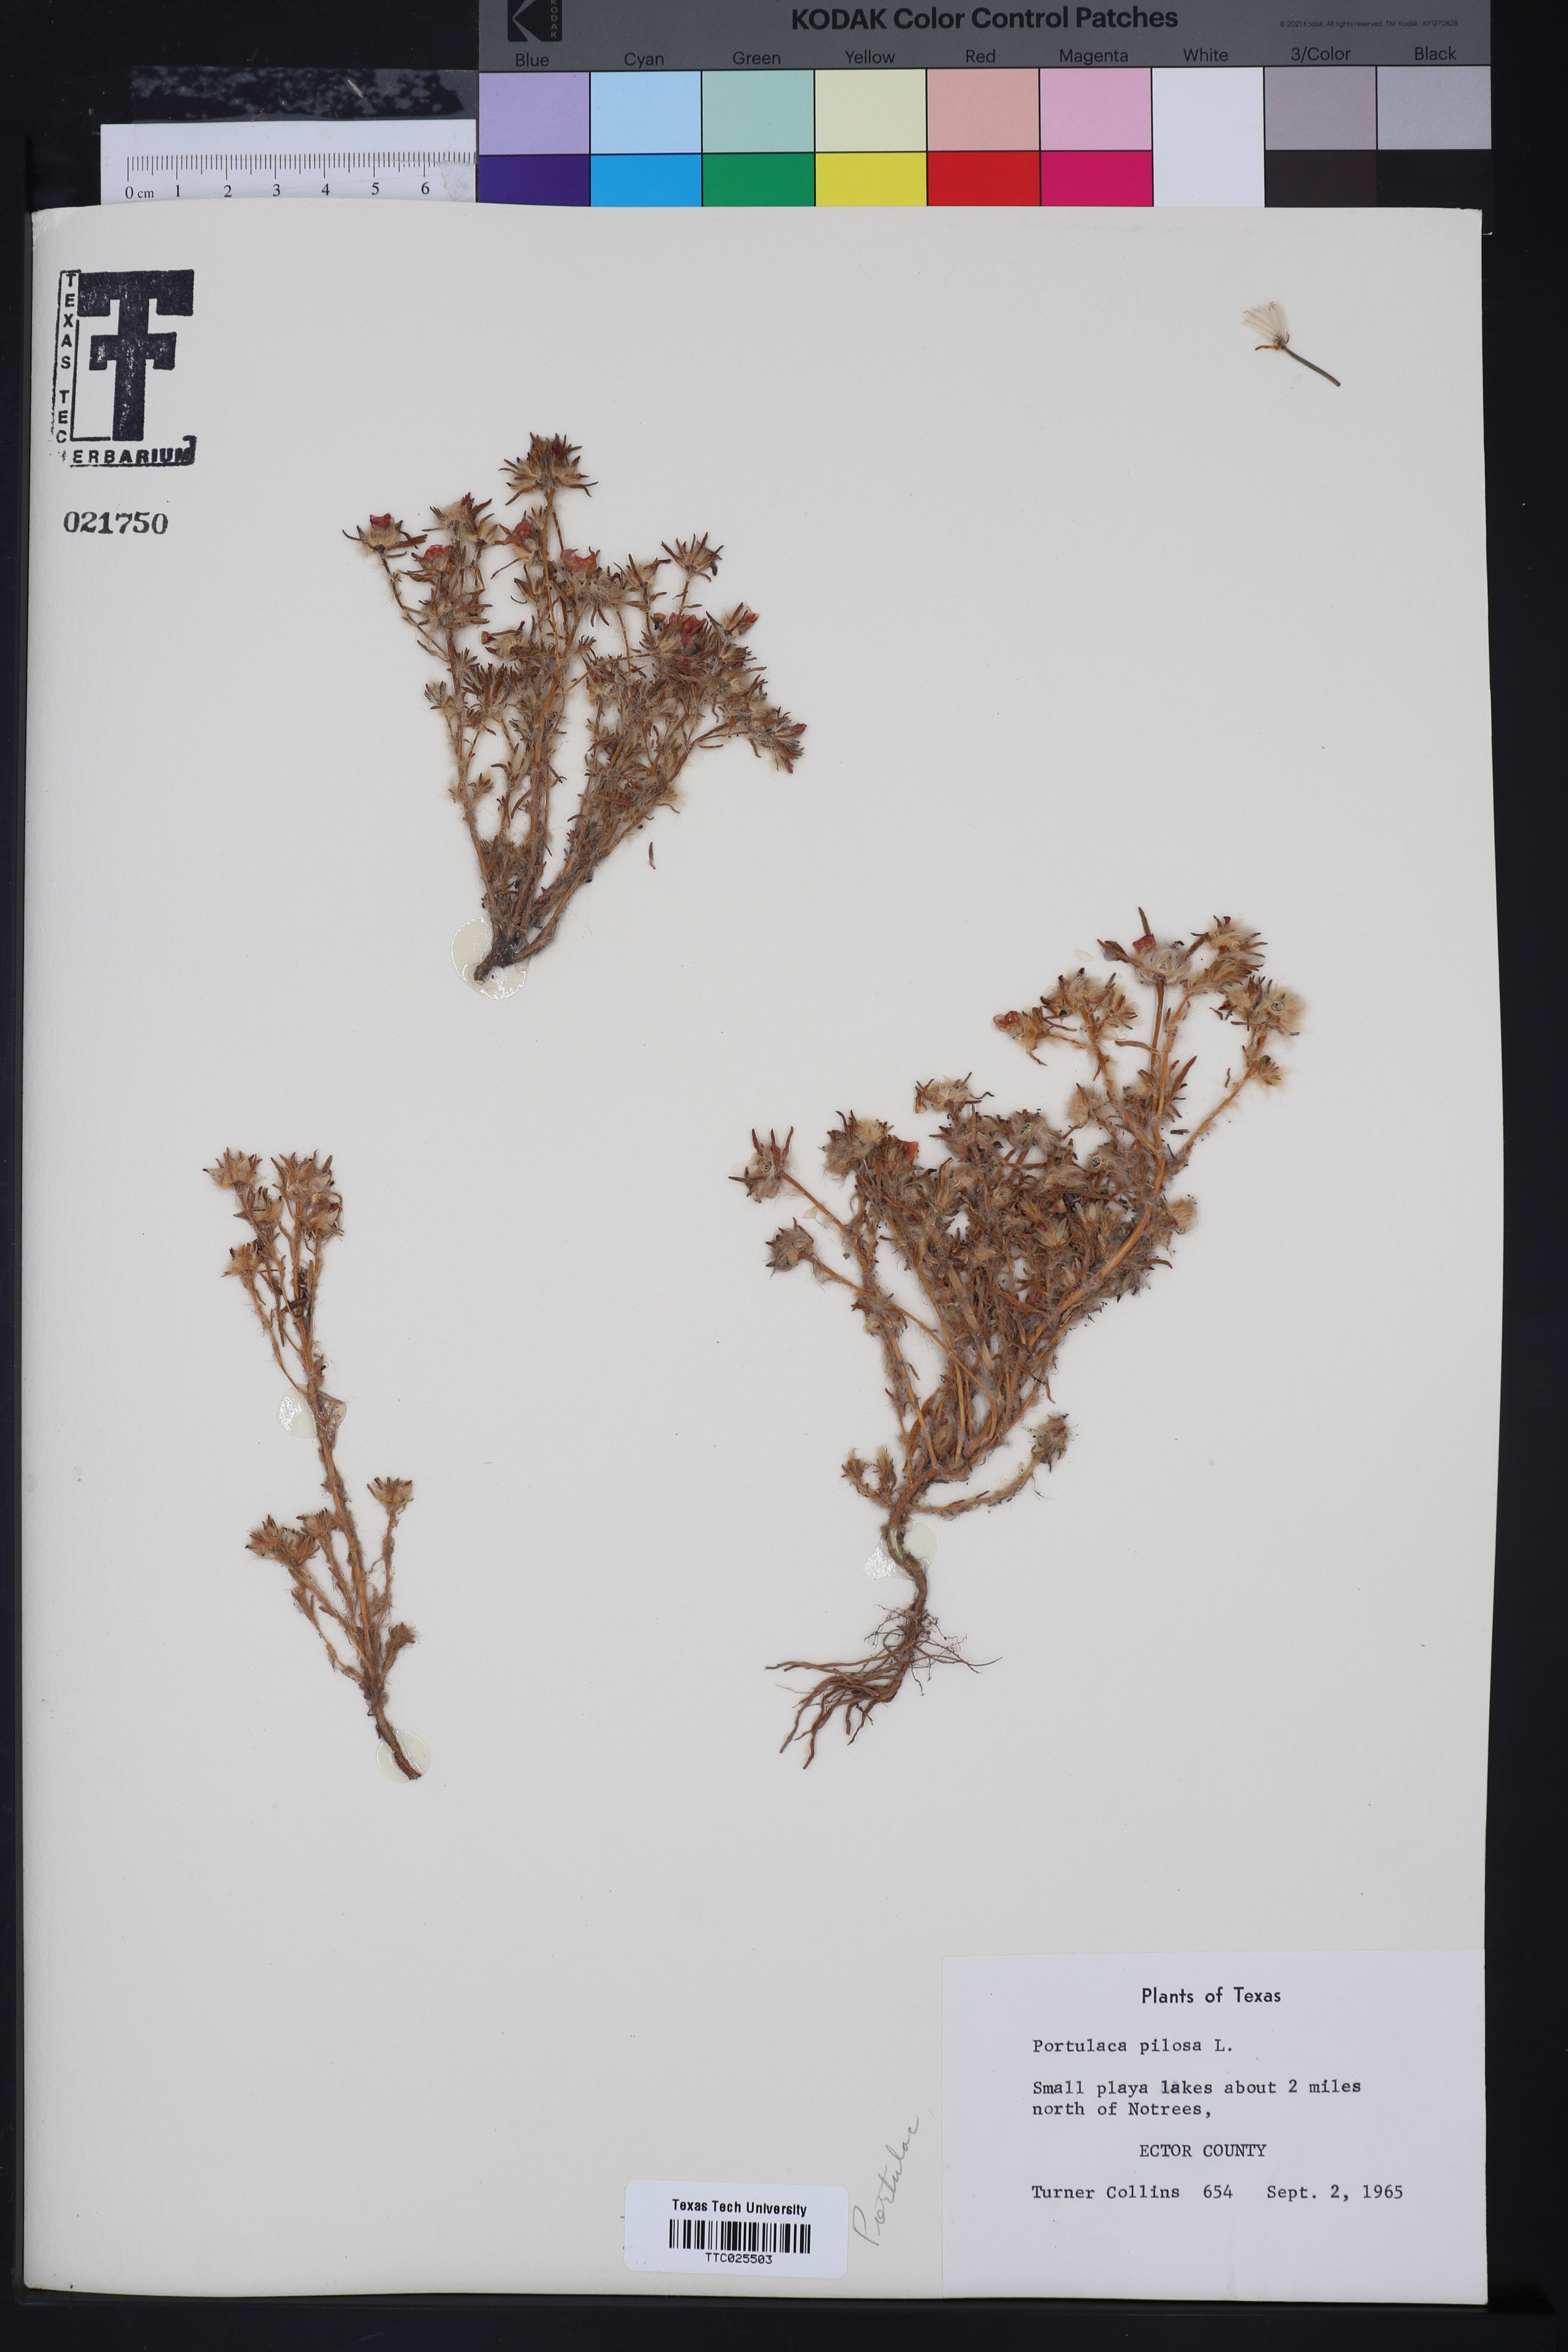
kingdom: Plantae
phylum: Tracheophyta
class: Magnoliopsida
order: Caryophyllales
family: Portulacaceae
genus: Portulaca
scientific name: Portulaca pilosa
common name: Kiss me quick
